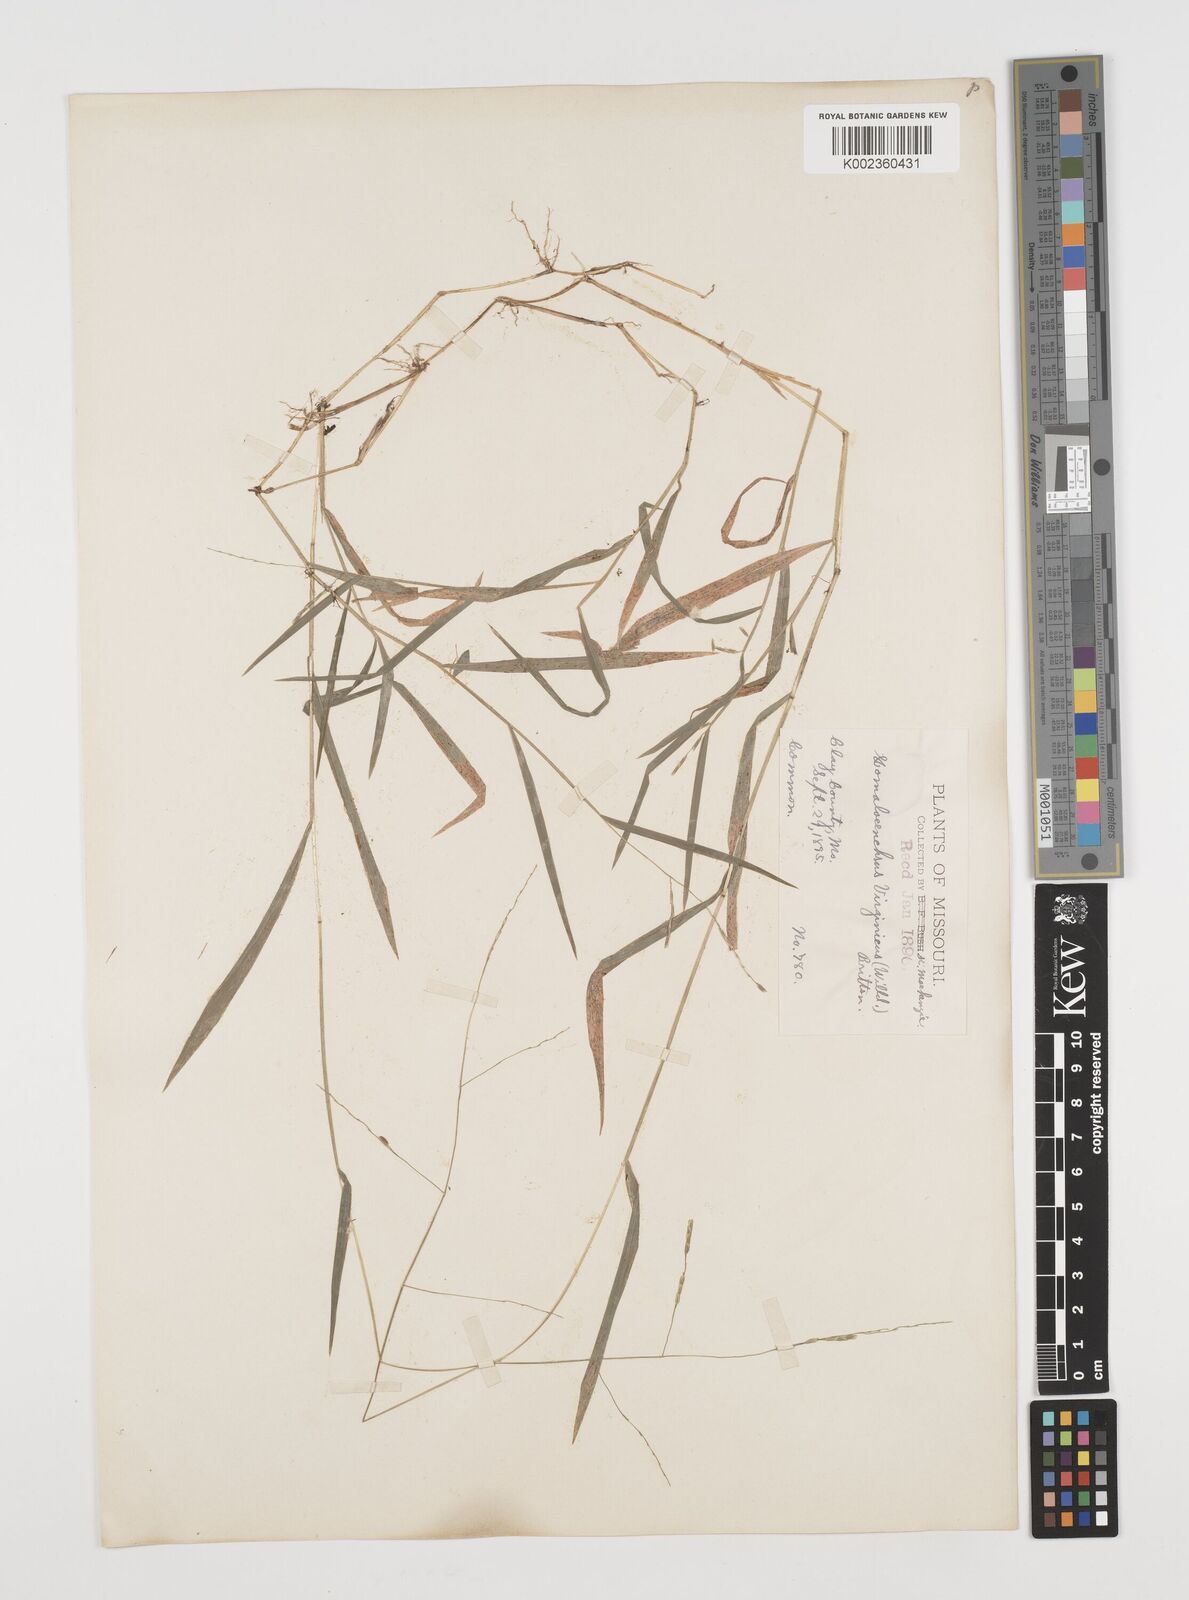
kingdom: Plantae
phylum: Tracheophyta
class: Liliopsida
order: Poales
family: Poaceae
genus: Leersia
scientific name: Leersia virginica
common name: White cutgrass
